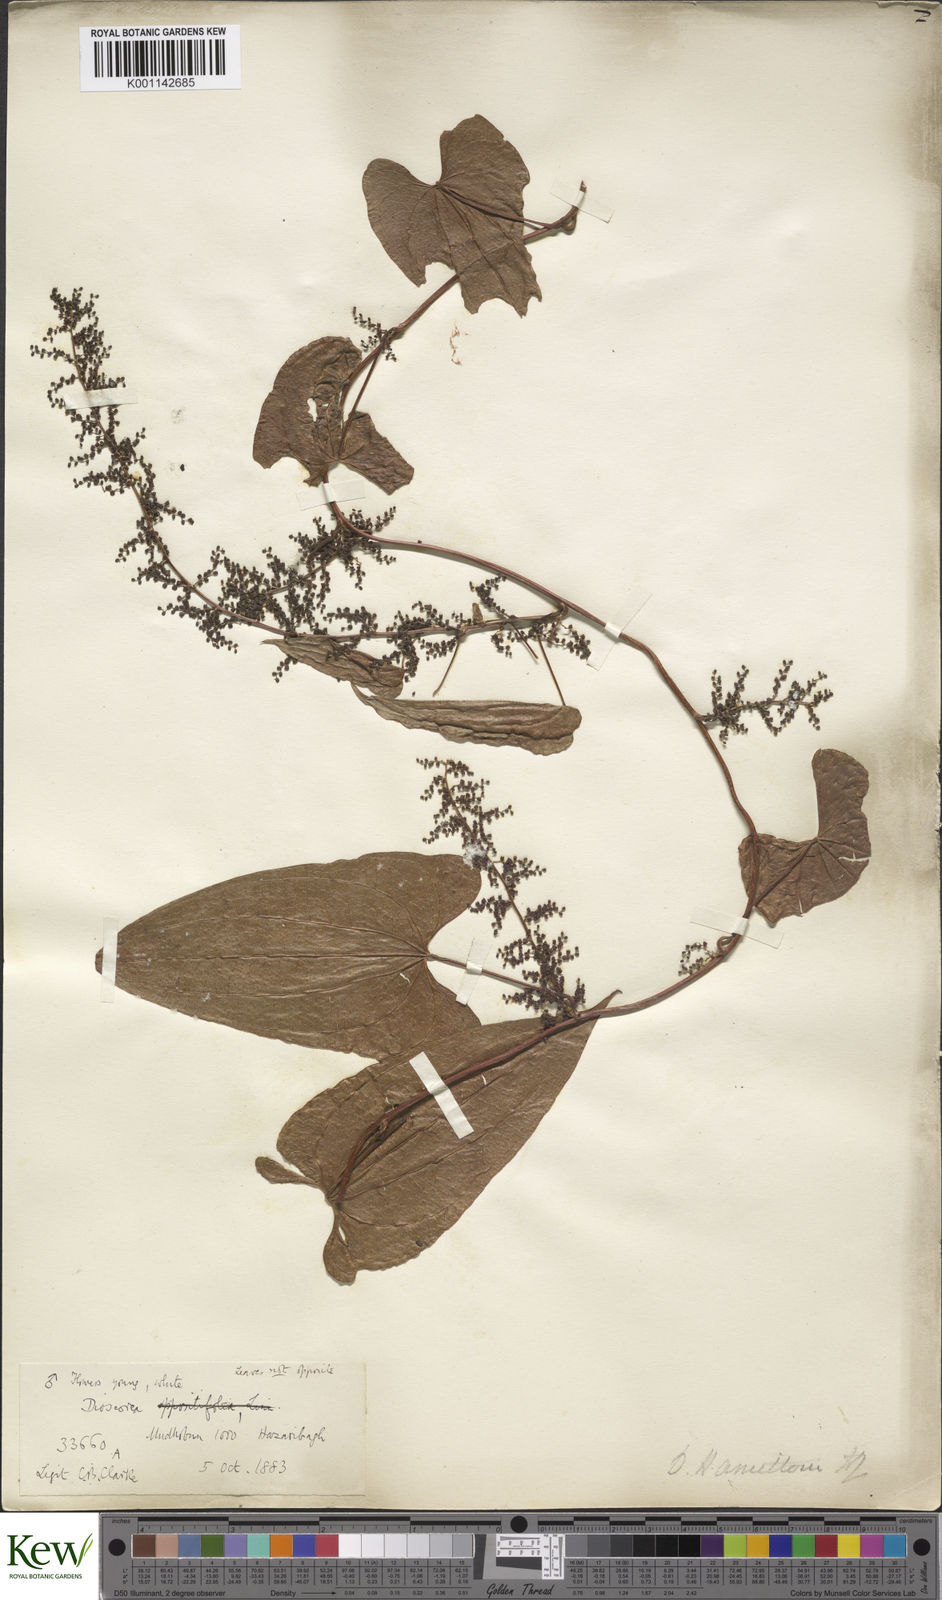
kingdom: Plantae
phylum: Tracheophyta
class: Liliopsida
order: Dioscoreales
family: Dioscoreaceae
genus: Dioscorea
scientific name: Dioscorea hamiltonii
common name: Mountain yam
